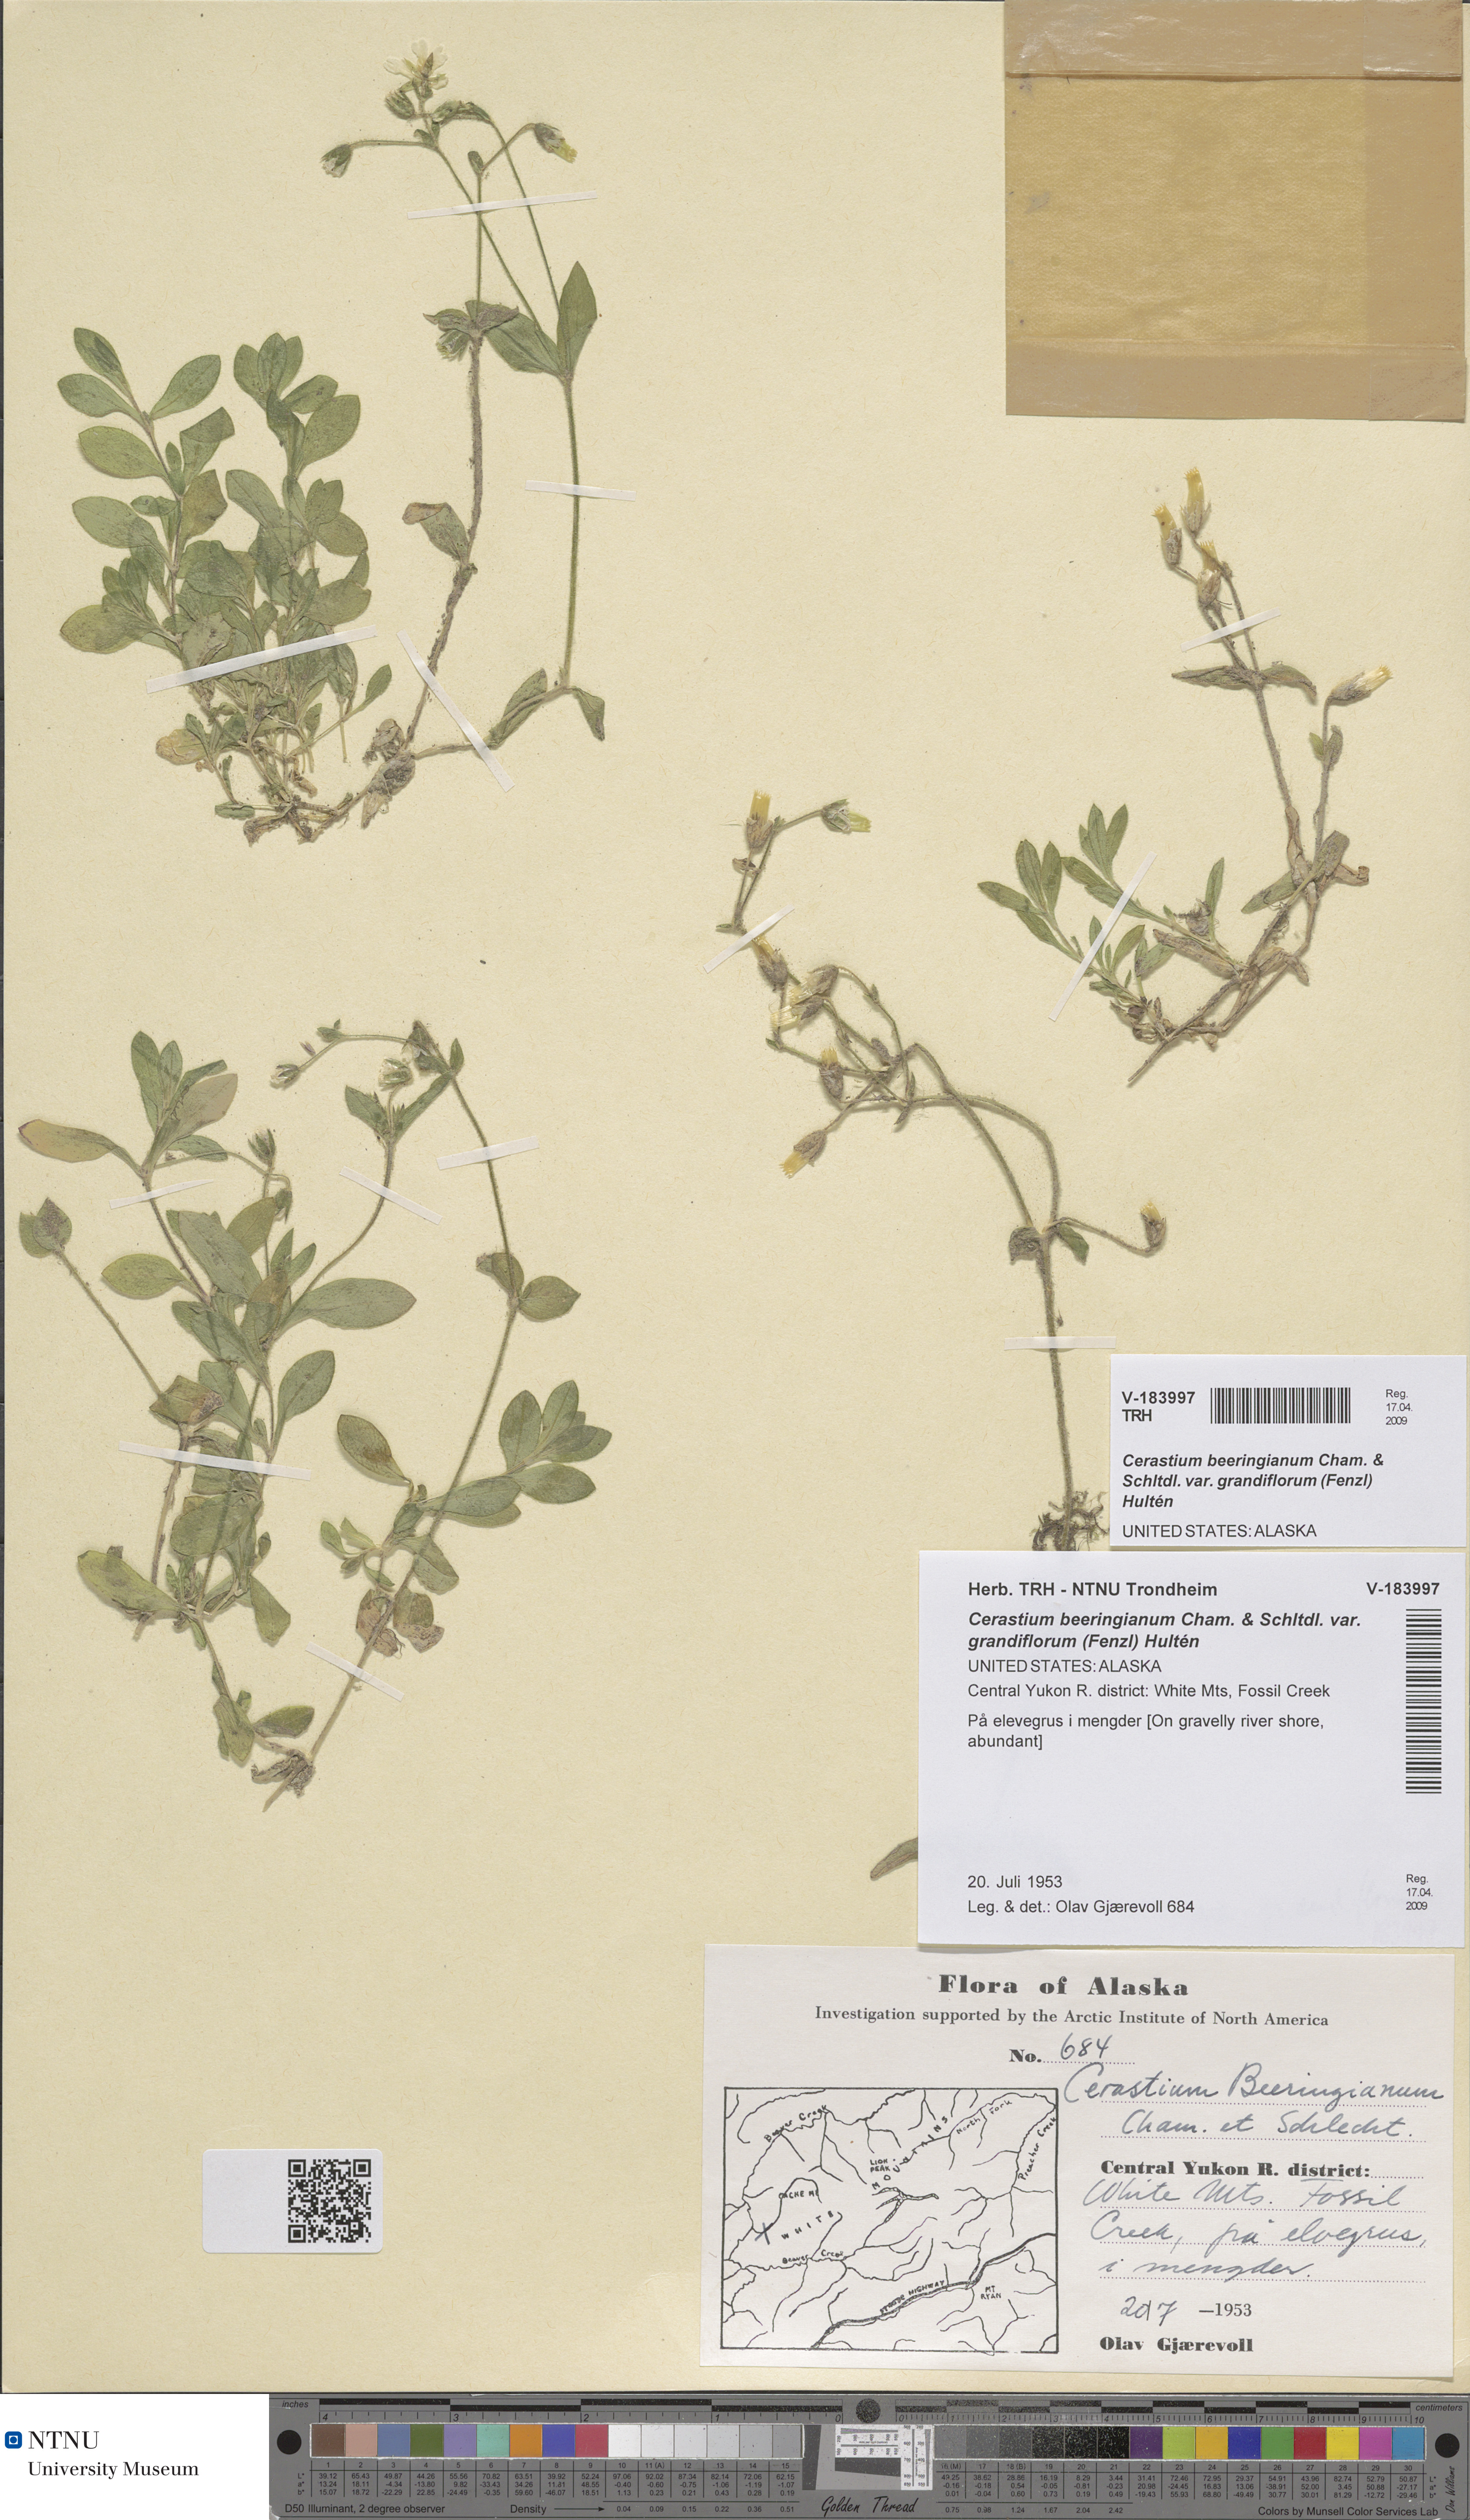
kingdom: Plantae
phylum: Tracheophyta
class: Magnoliopsida
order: Caryophyllales
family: Caryophyllaceae
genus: Cerastium
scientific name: Cerastium beeringianum
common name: Bering mouse-ear chickweed
